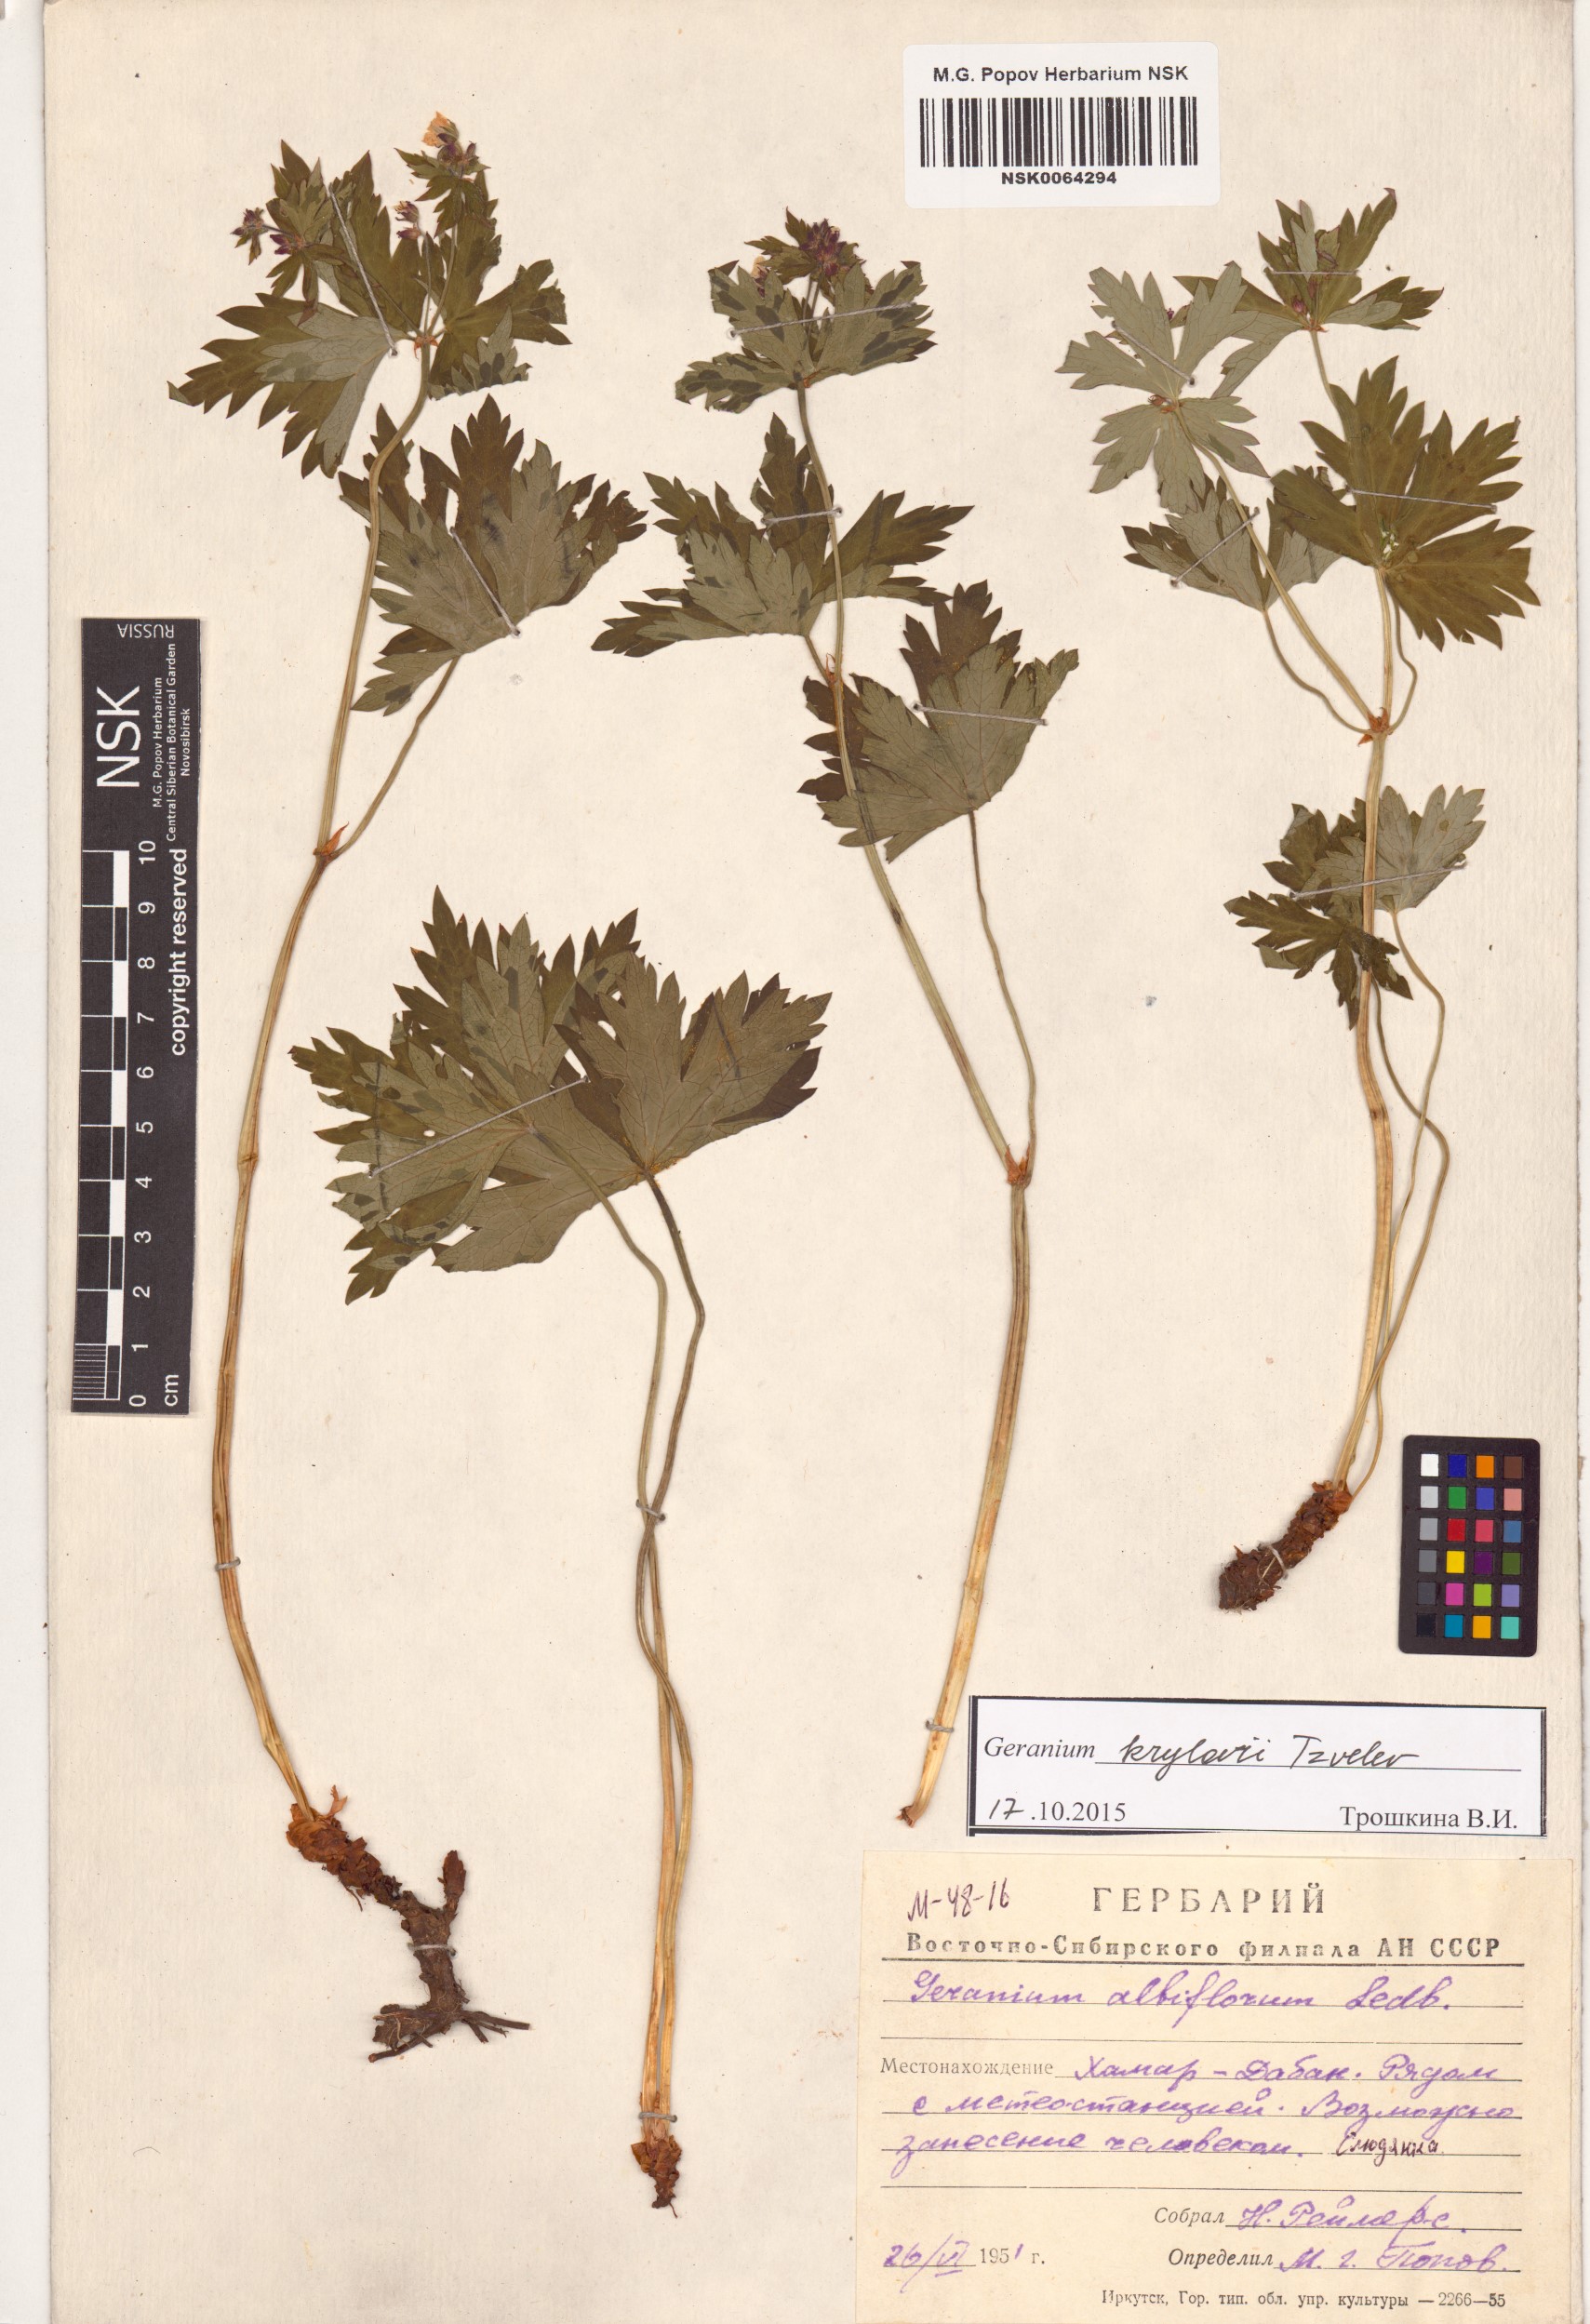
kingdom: Plantae
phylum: Tracheophyta
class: Magnoliopsida
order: Geraniales
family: Geraniaceae
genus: Geranium
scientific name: Geranium sylvaticum
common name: Wood crane's-bill
